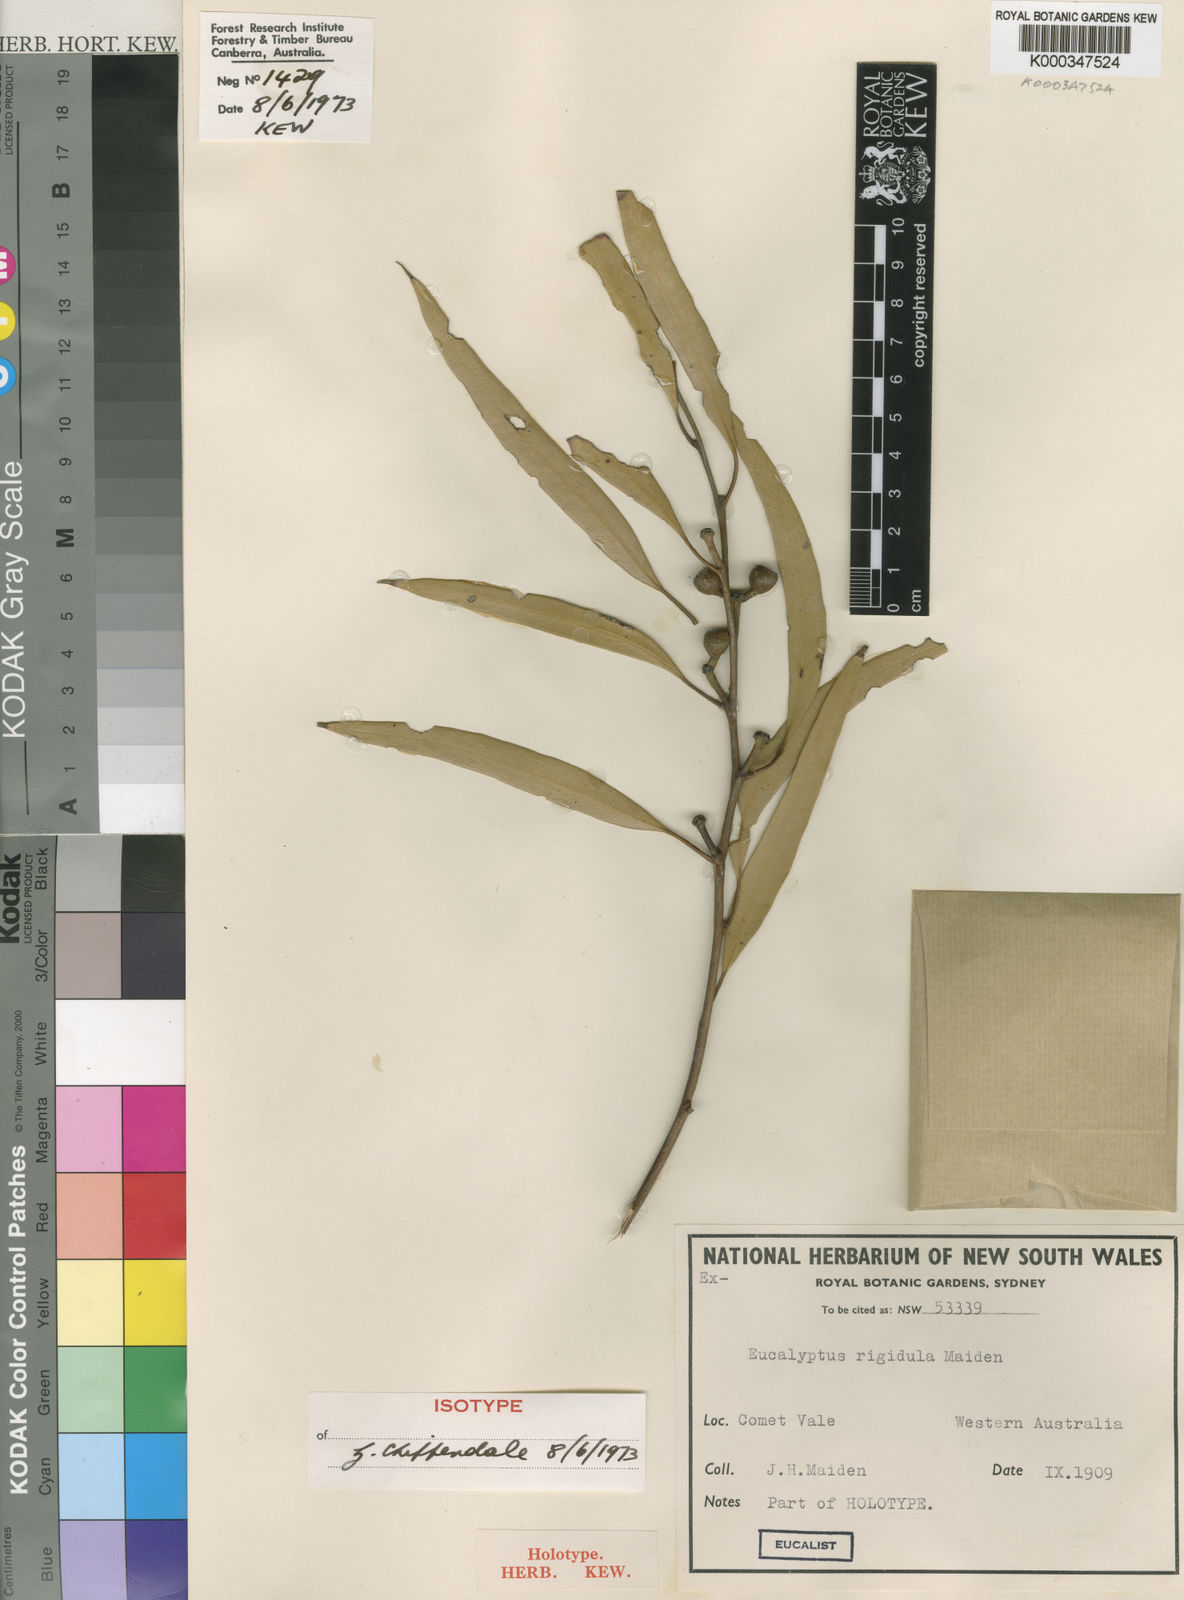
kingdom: Plantae
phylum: Tracheophyta
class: Magnoliopsida
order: Myrtales
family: Myrtaceae
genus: Eucalyptus
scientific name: Eucalyptus
